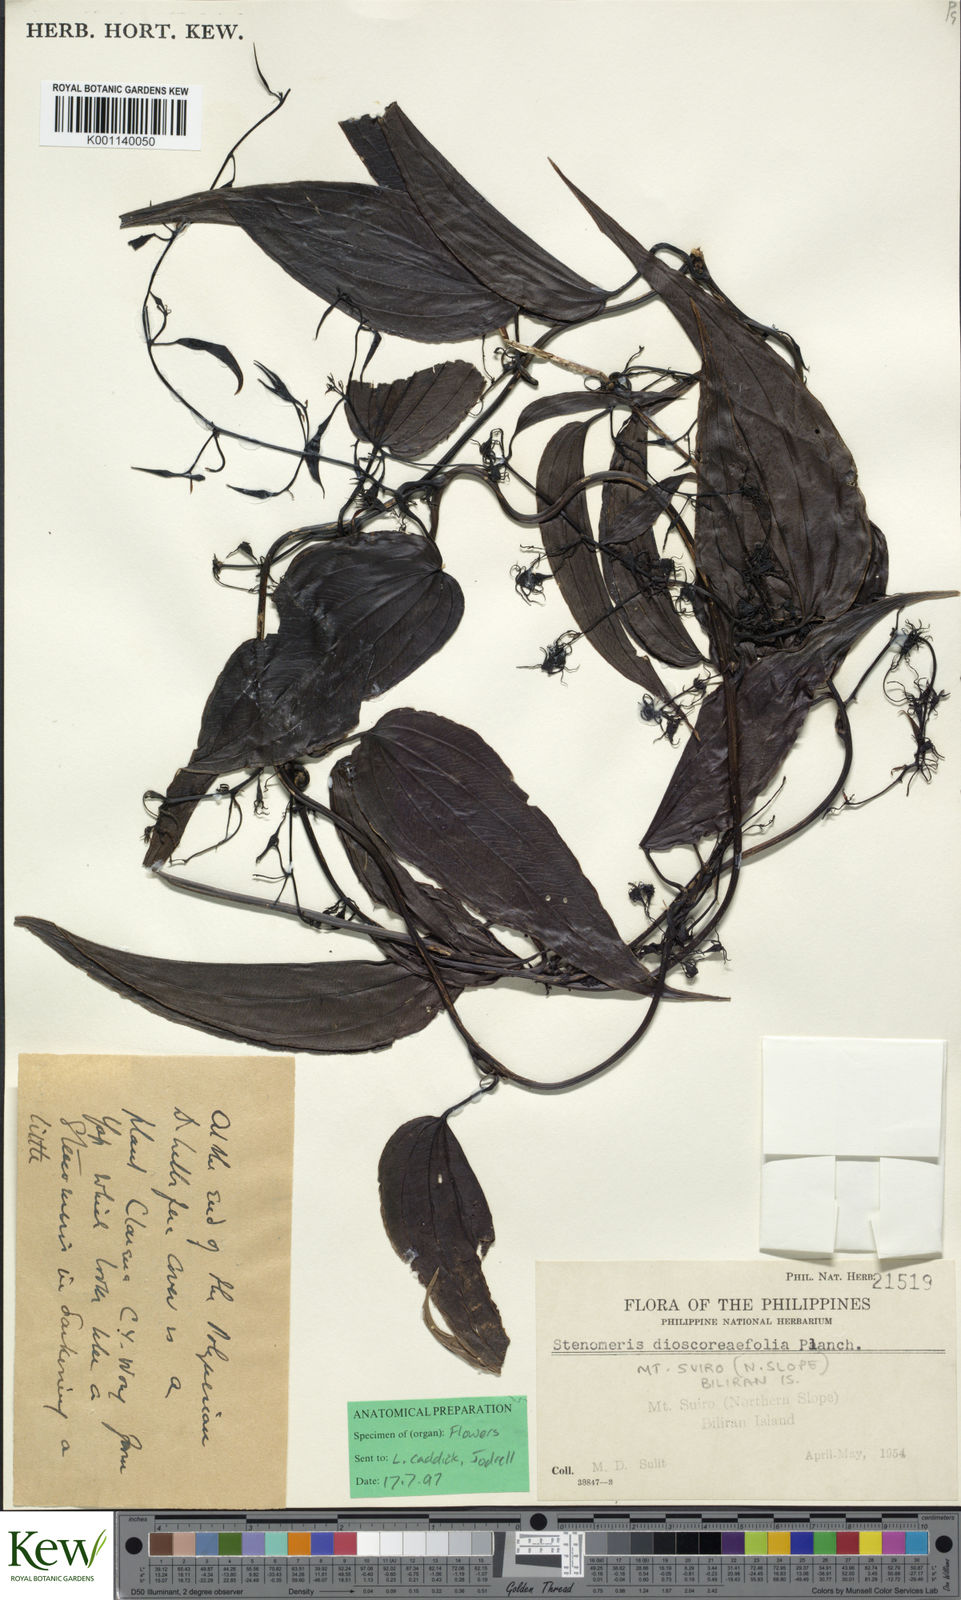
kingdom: Plantae
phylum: Tracheophyta
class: Liliopsida
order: Dioscoreales
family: Dioscoreaceae
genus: Stenomeris
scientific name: Stenomeris dioscoreifolia
